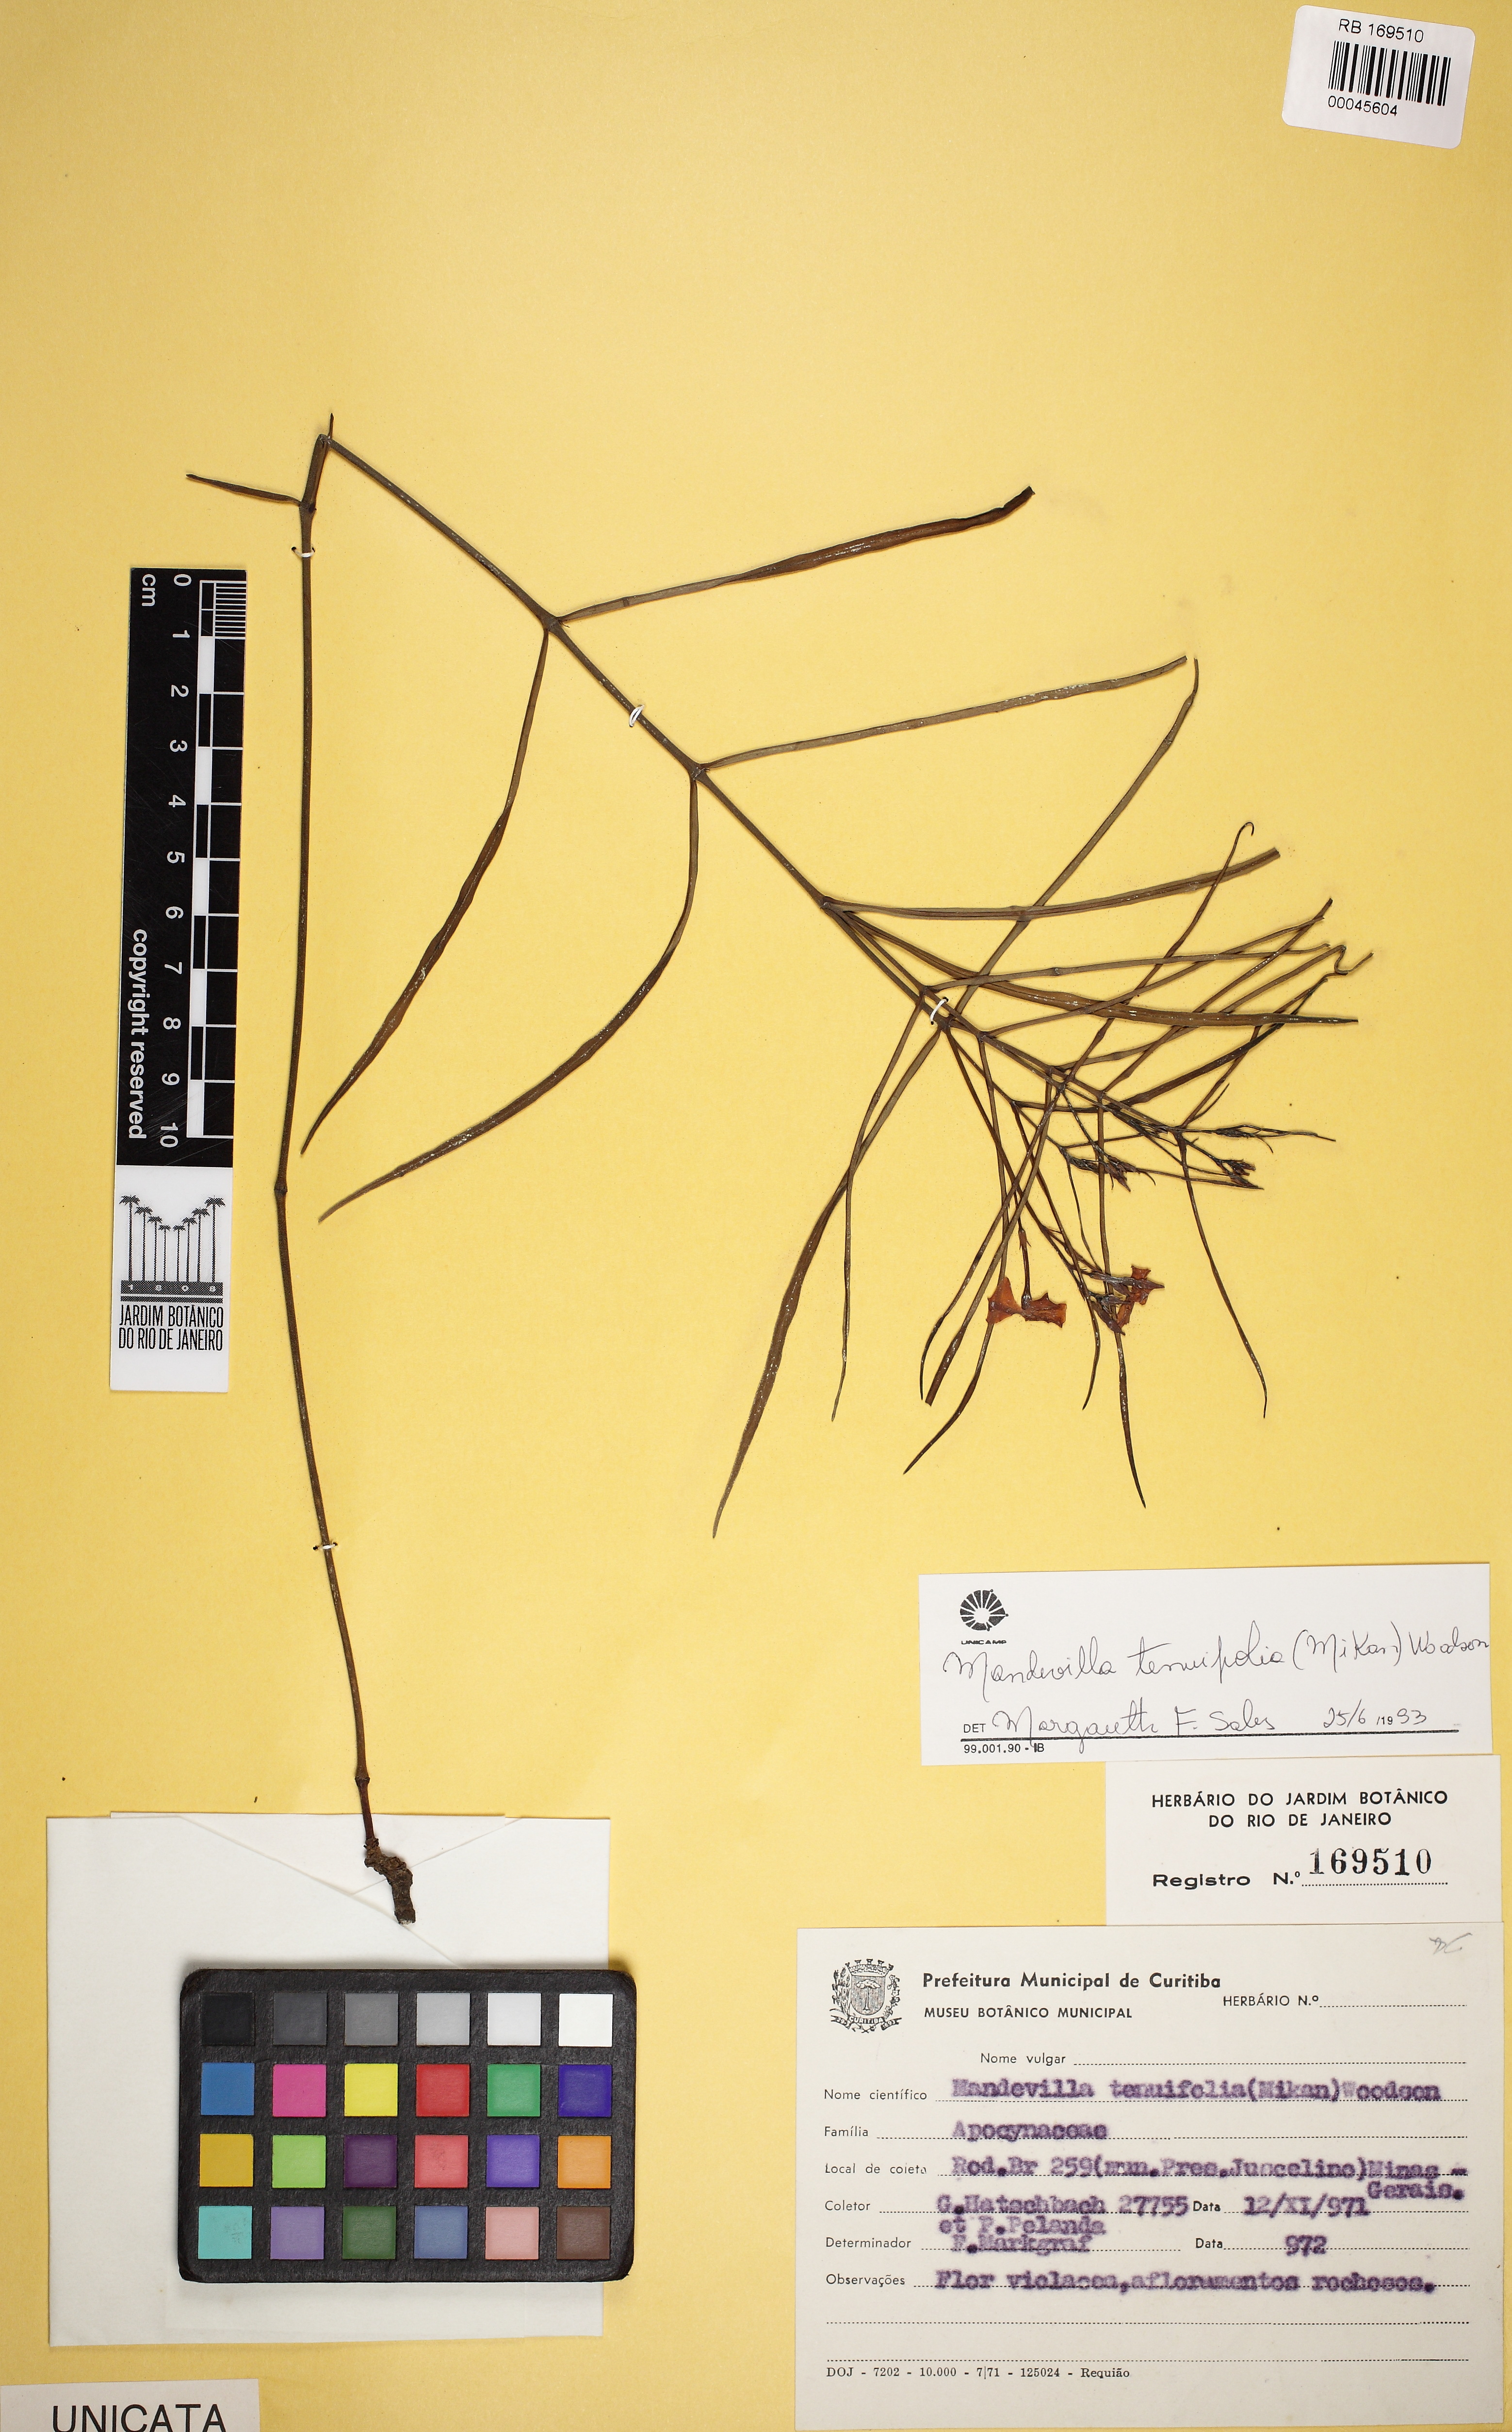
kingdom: Plantae
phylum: Tracheophyta
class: Magnoliopsida
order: Gentianales
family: Apocynaceae
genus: Mandevilla
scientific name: Mandevilla tenuifolia
